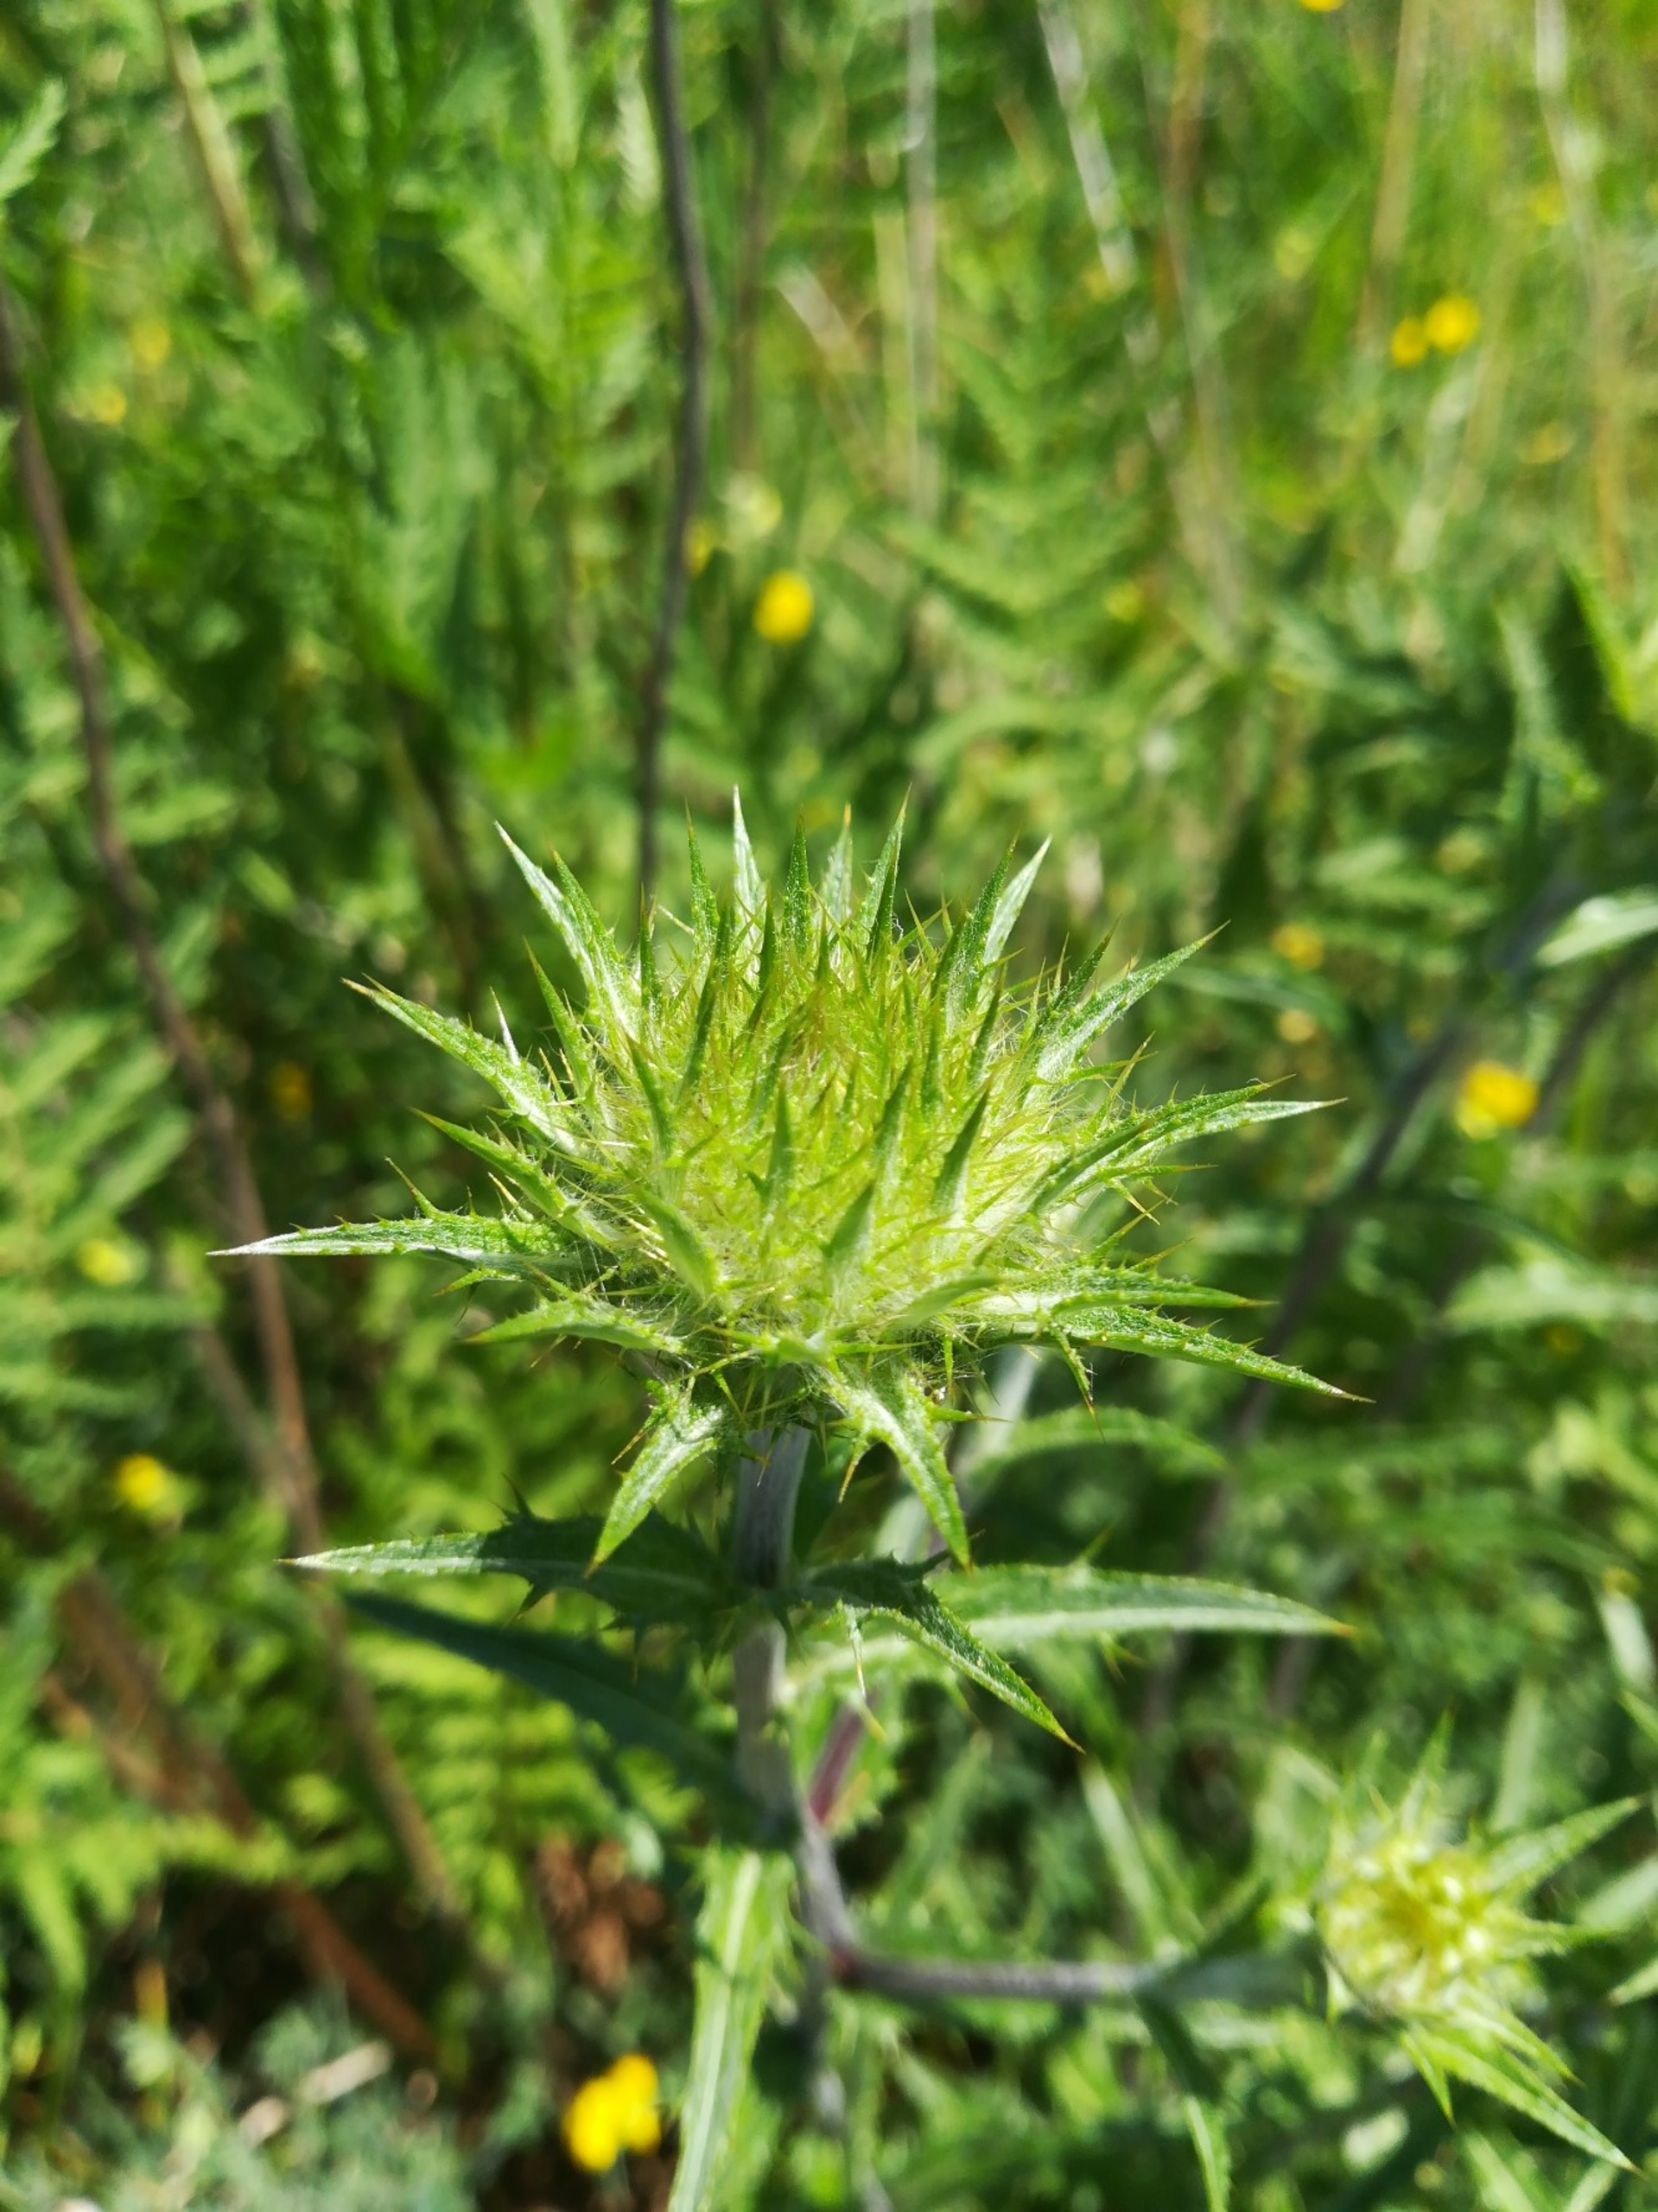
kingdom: Plantae
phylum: Tracheophyta
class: Magnoliopsida
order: Asterales
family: Asteraceae
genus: Carlina
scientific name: Carlina vulgaris
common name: Bakketidsel
